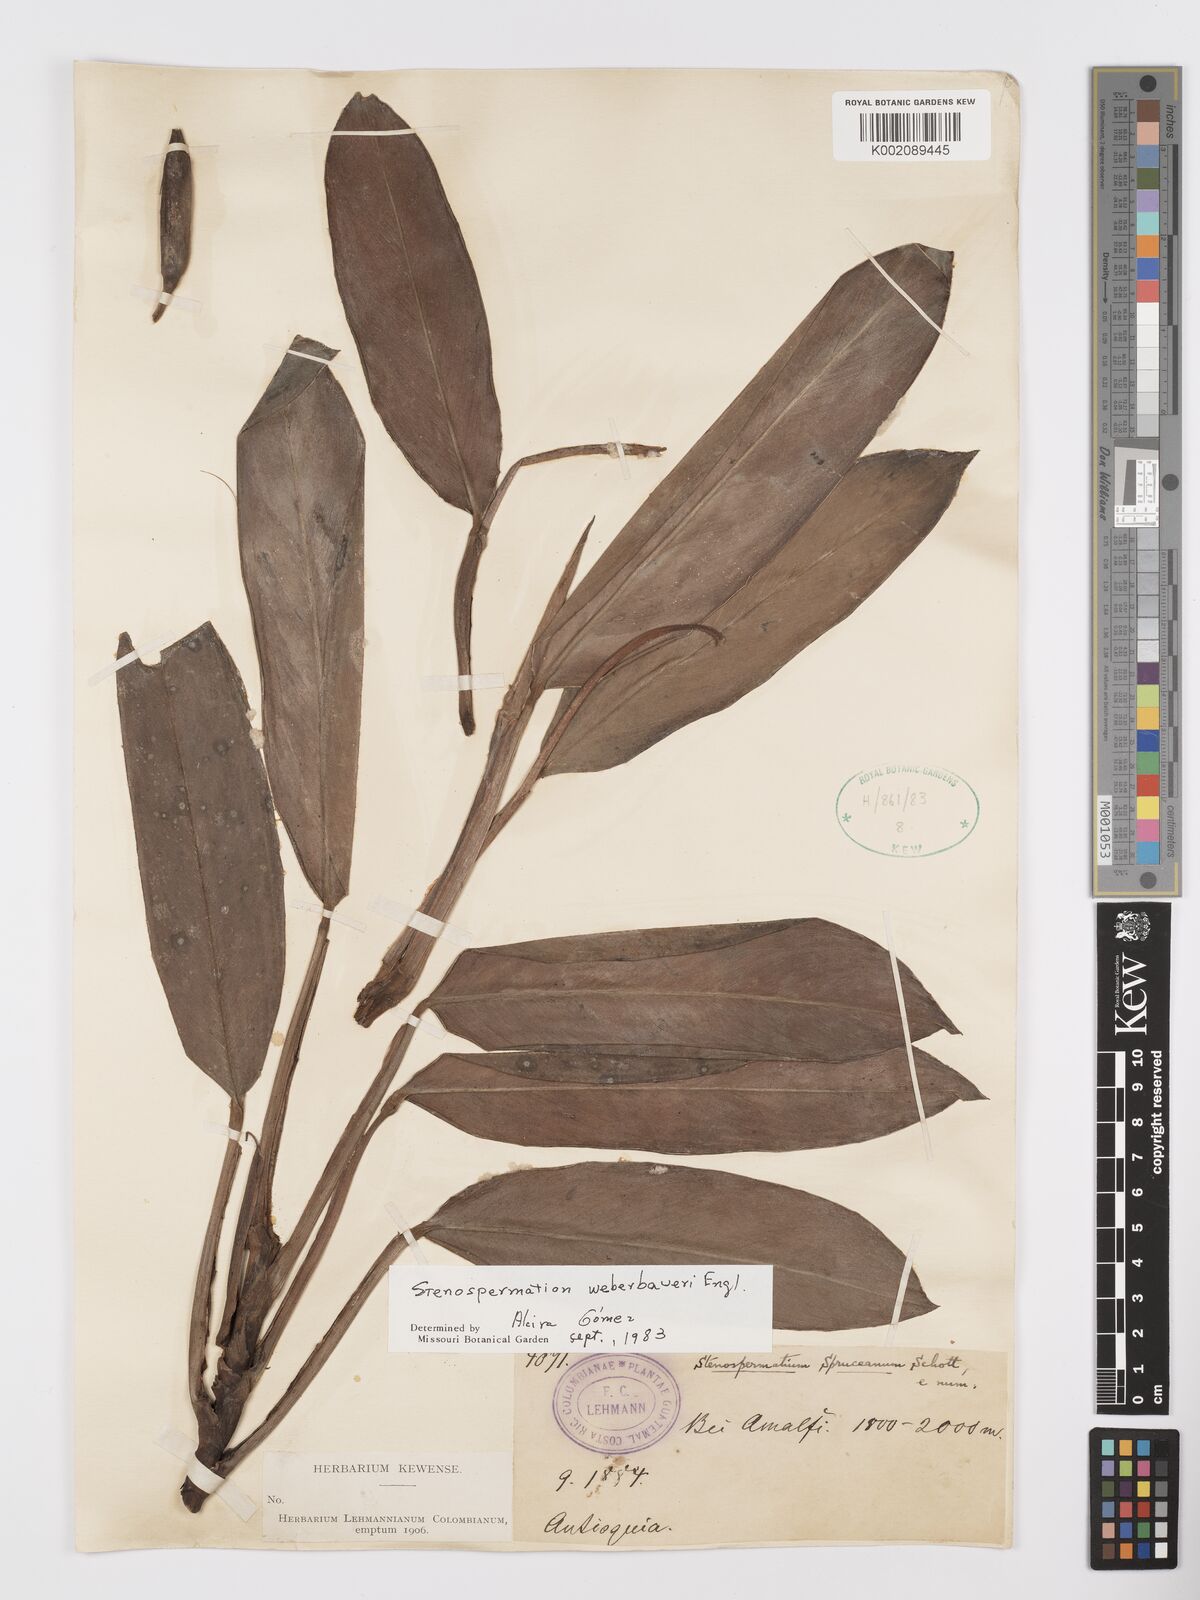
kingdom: Plantae
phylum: Tracheophyta
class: Liliopsida
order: Alismatales
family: Araceae
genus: Stenospermation
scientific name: Stenospermation weberbaueri
